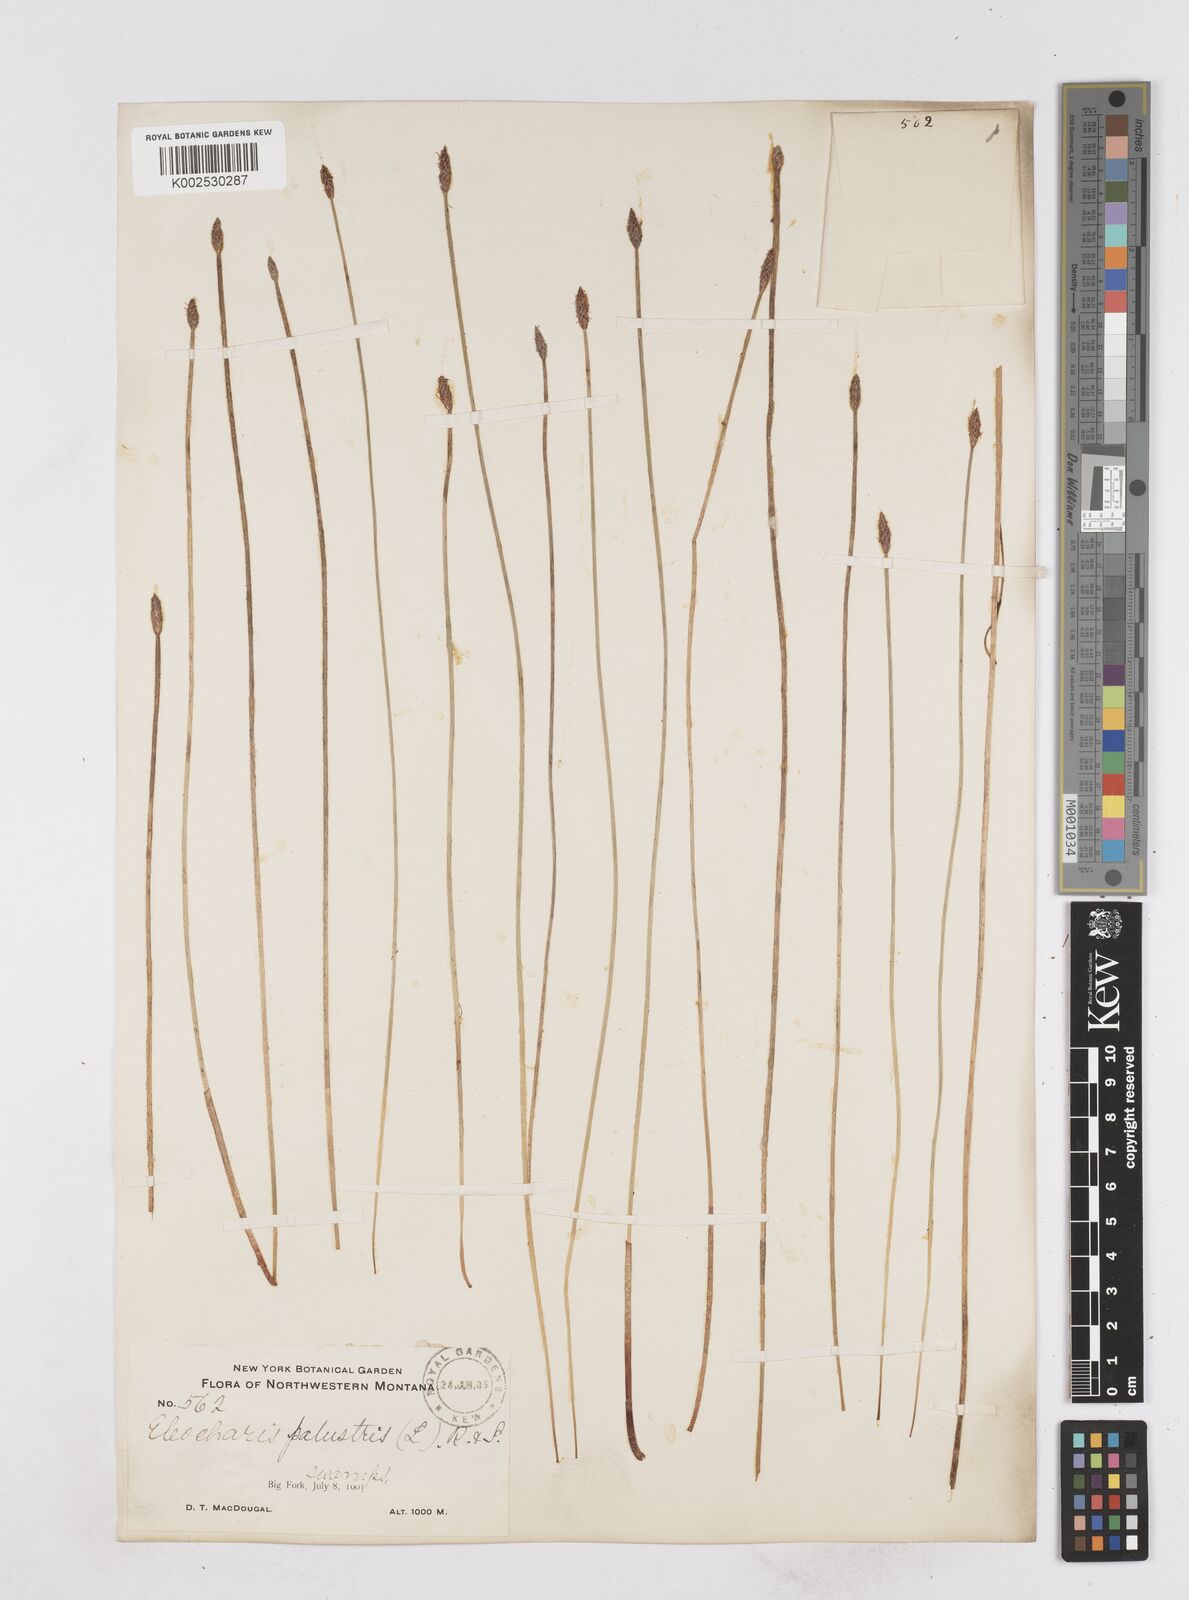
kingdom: Plantae
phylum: Tracheophyta
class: Liliopsida
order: Poales
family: Cyperaceae
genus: Eleocharis
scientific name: Eleocharis montana
